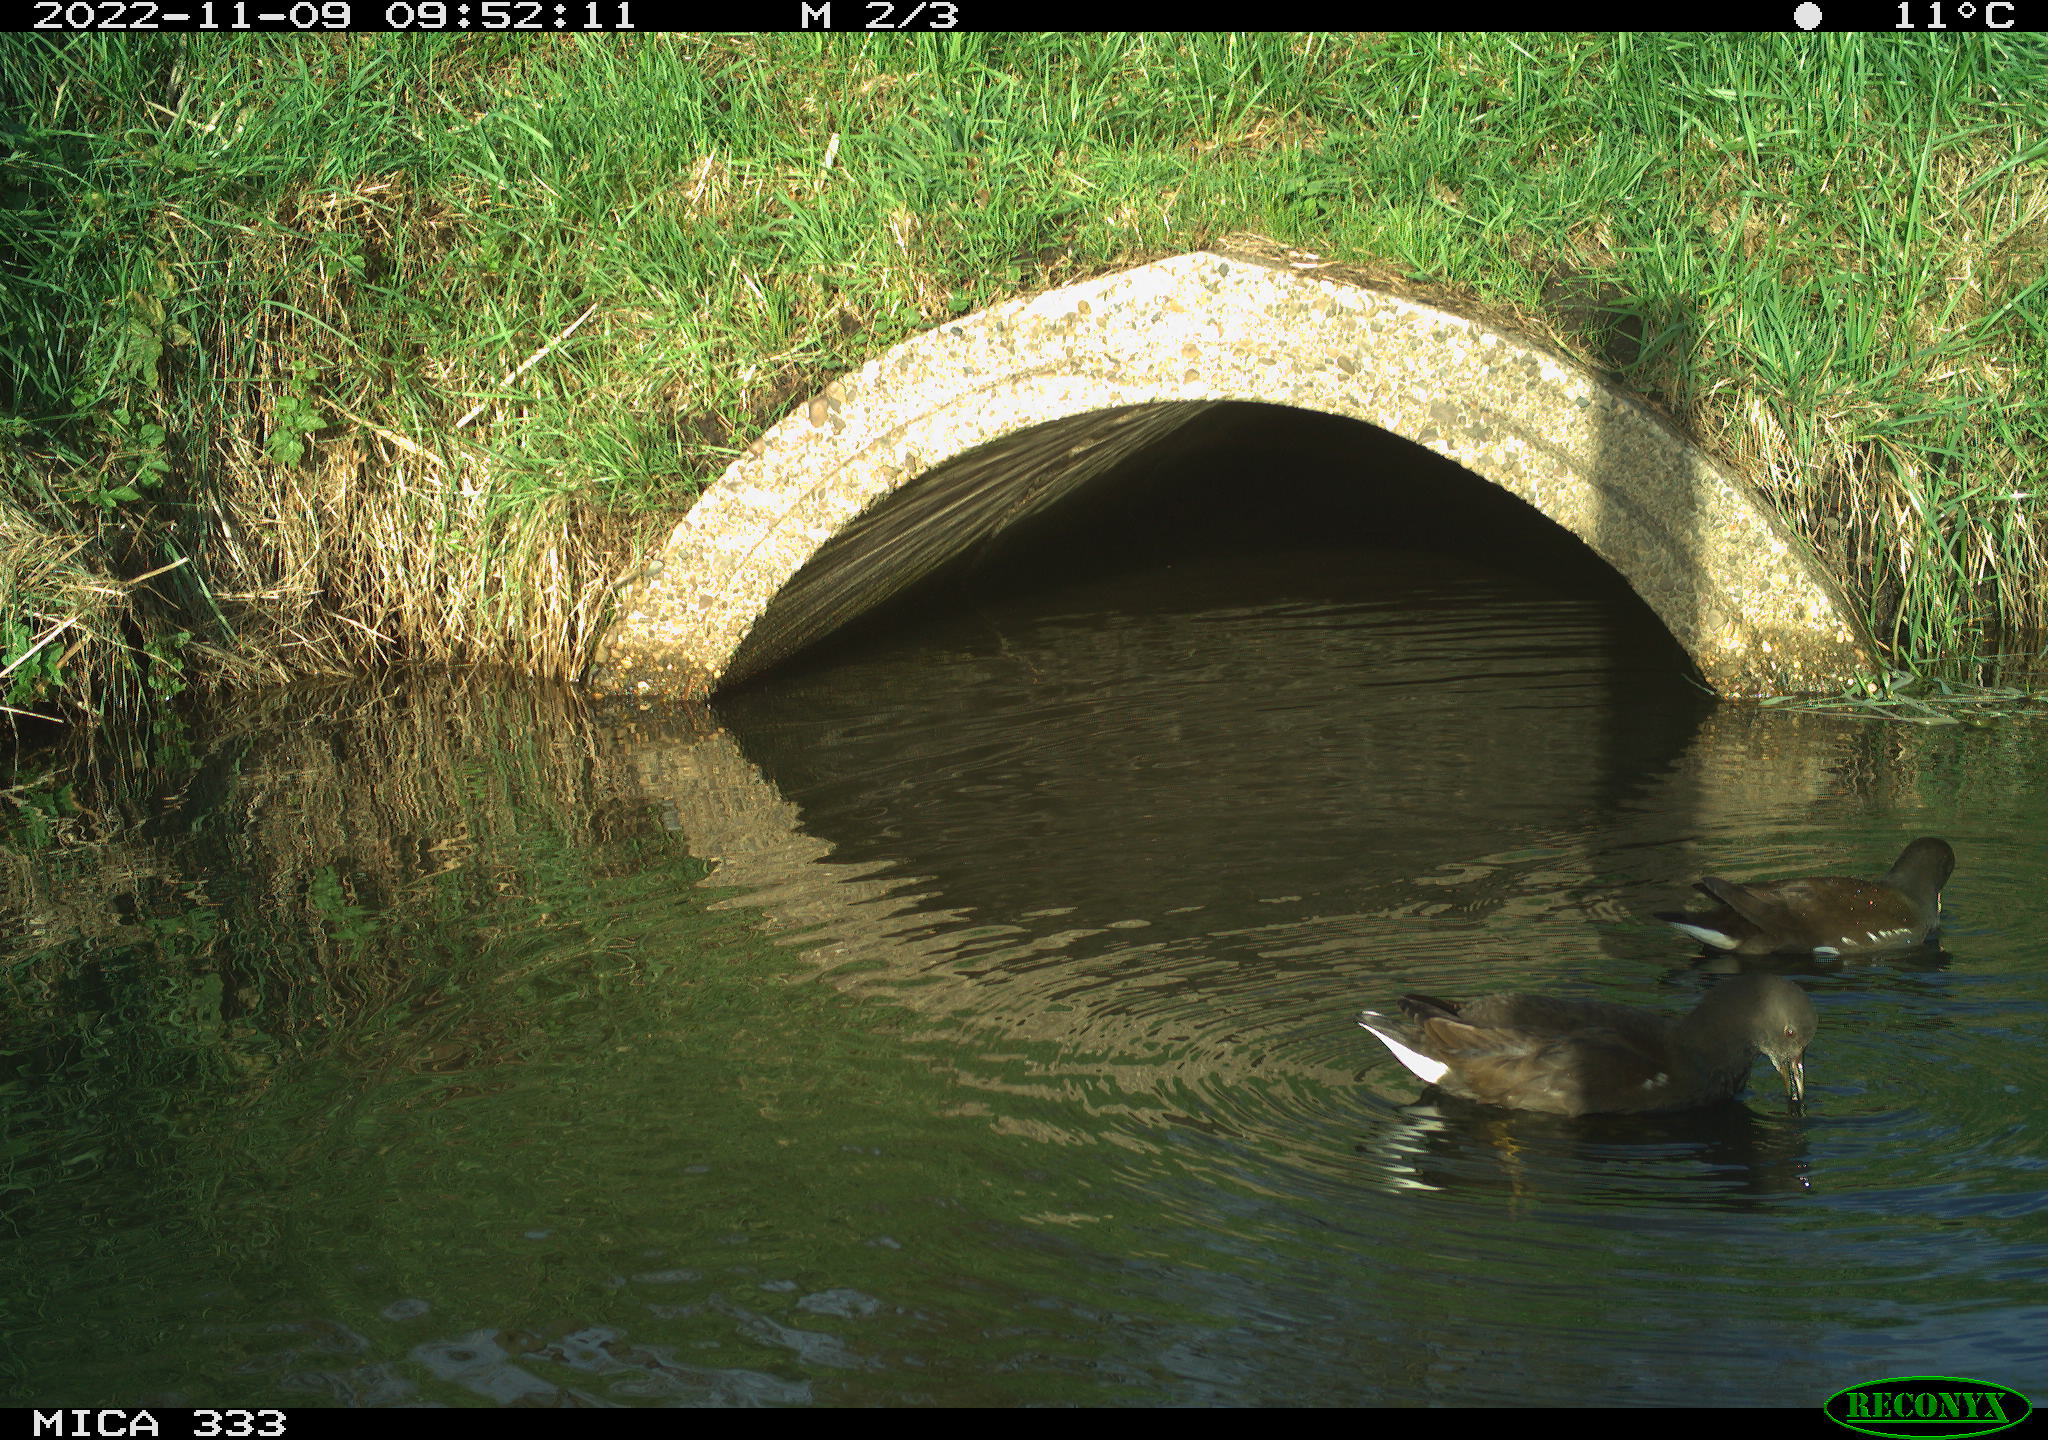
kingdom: Animalia
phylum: Chordata
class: Aves
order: Gruiformes
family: Rallidae
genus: Gallinula
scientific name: Gallinula chloropus
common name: Common moorhen
